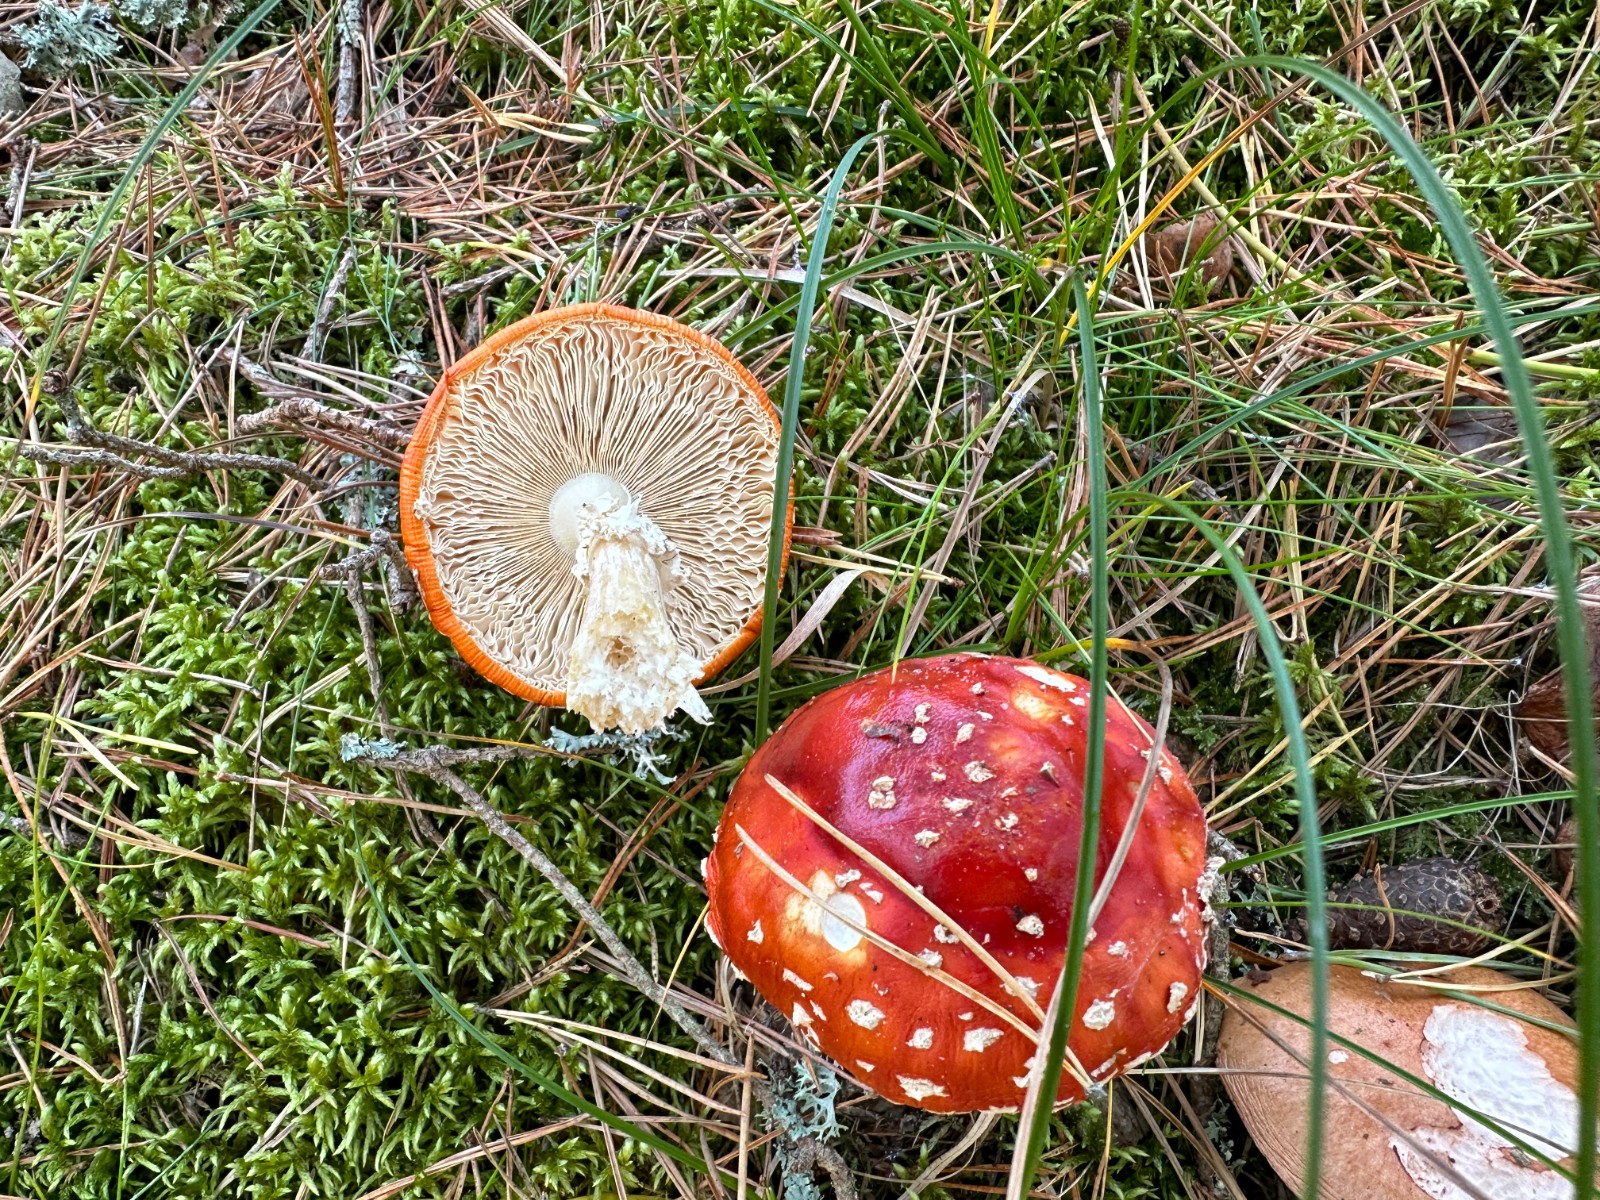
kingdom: Fungi
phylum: Basidiomycota
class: Agaricomycetes
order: Agaricales
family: Amanitaceae
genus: Amanita
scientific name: Amanita muscaria
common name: rød fluesvamp
